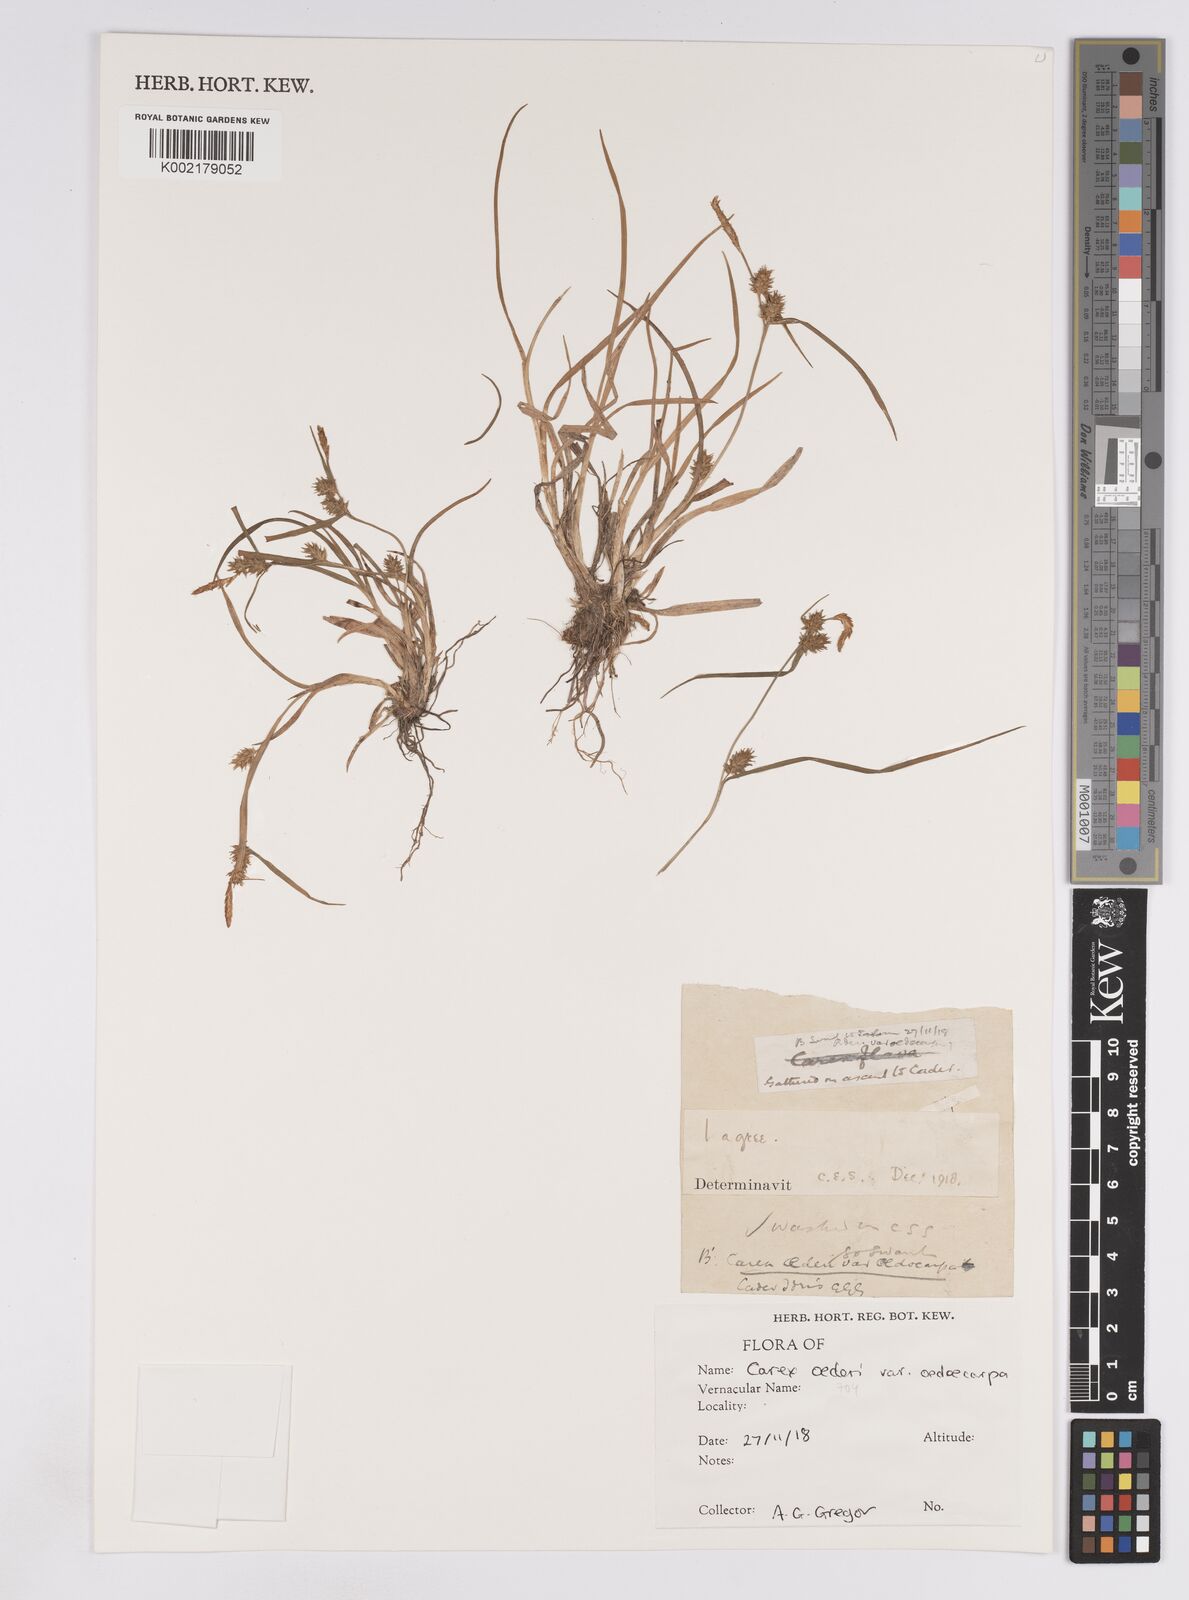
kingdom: Plantae
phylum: Tracheophyta
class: Liliopsida
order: Poales
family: Cyperaceae
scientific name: Cyperaceae
